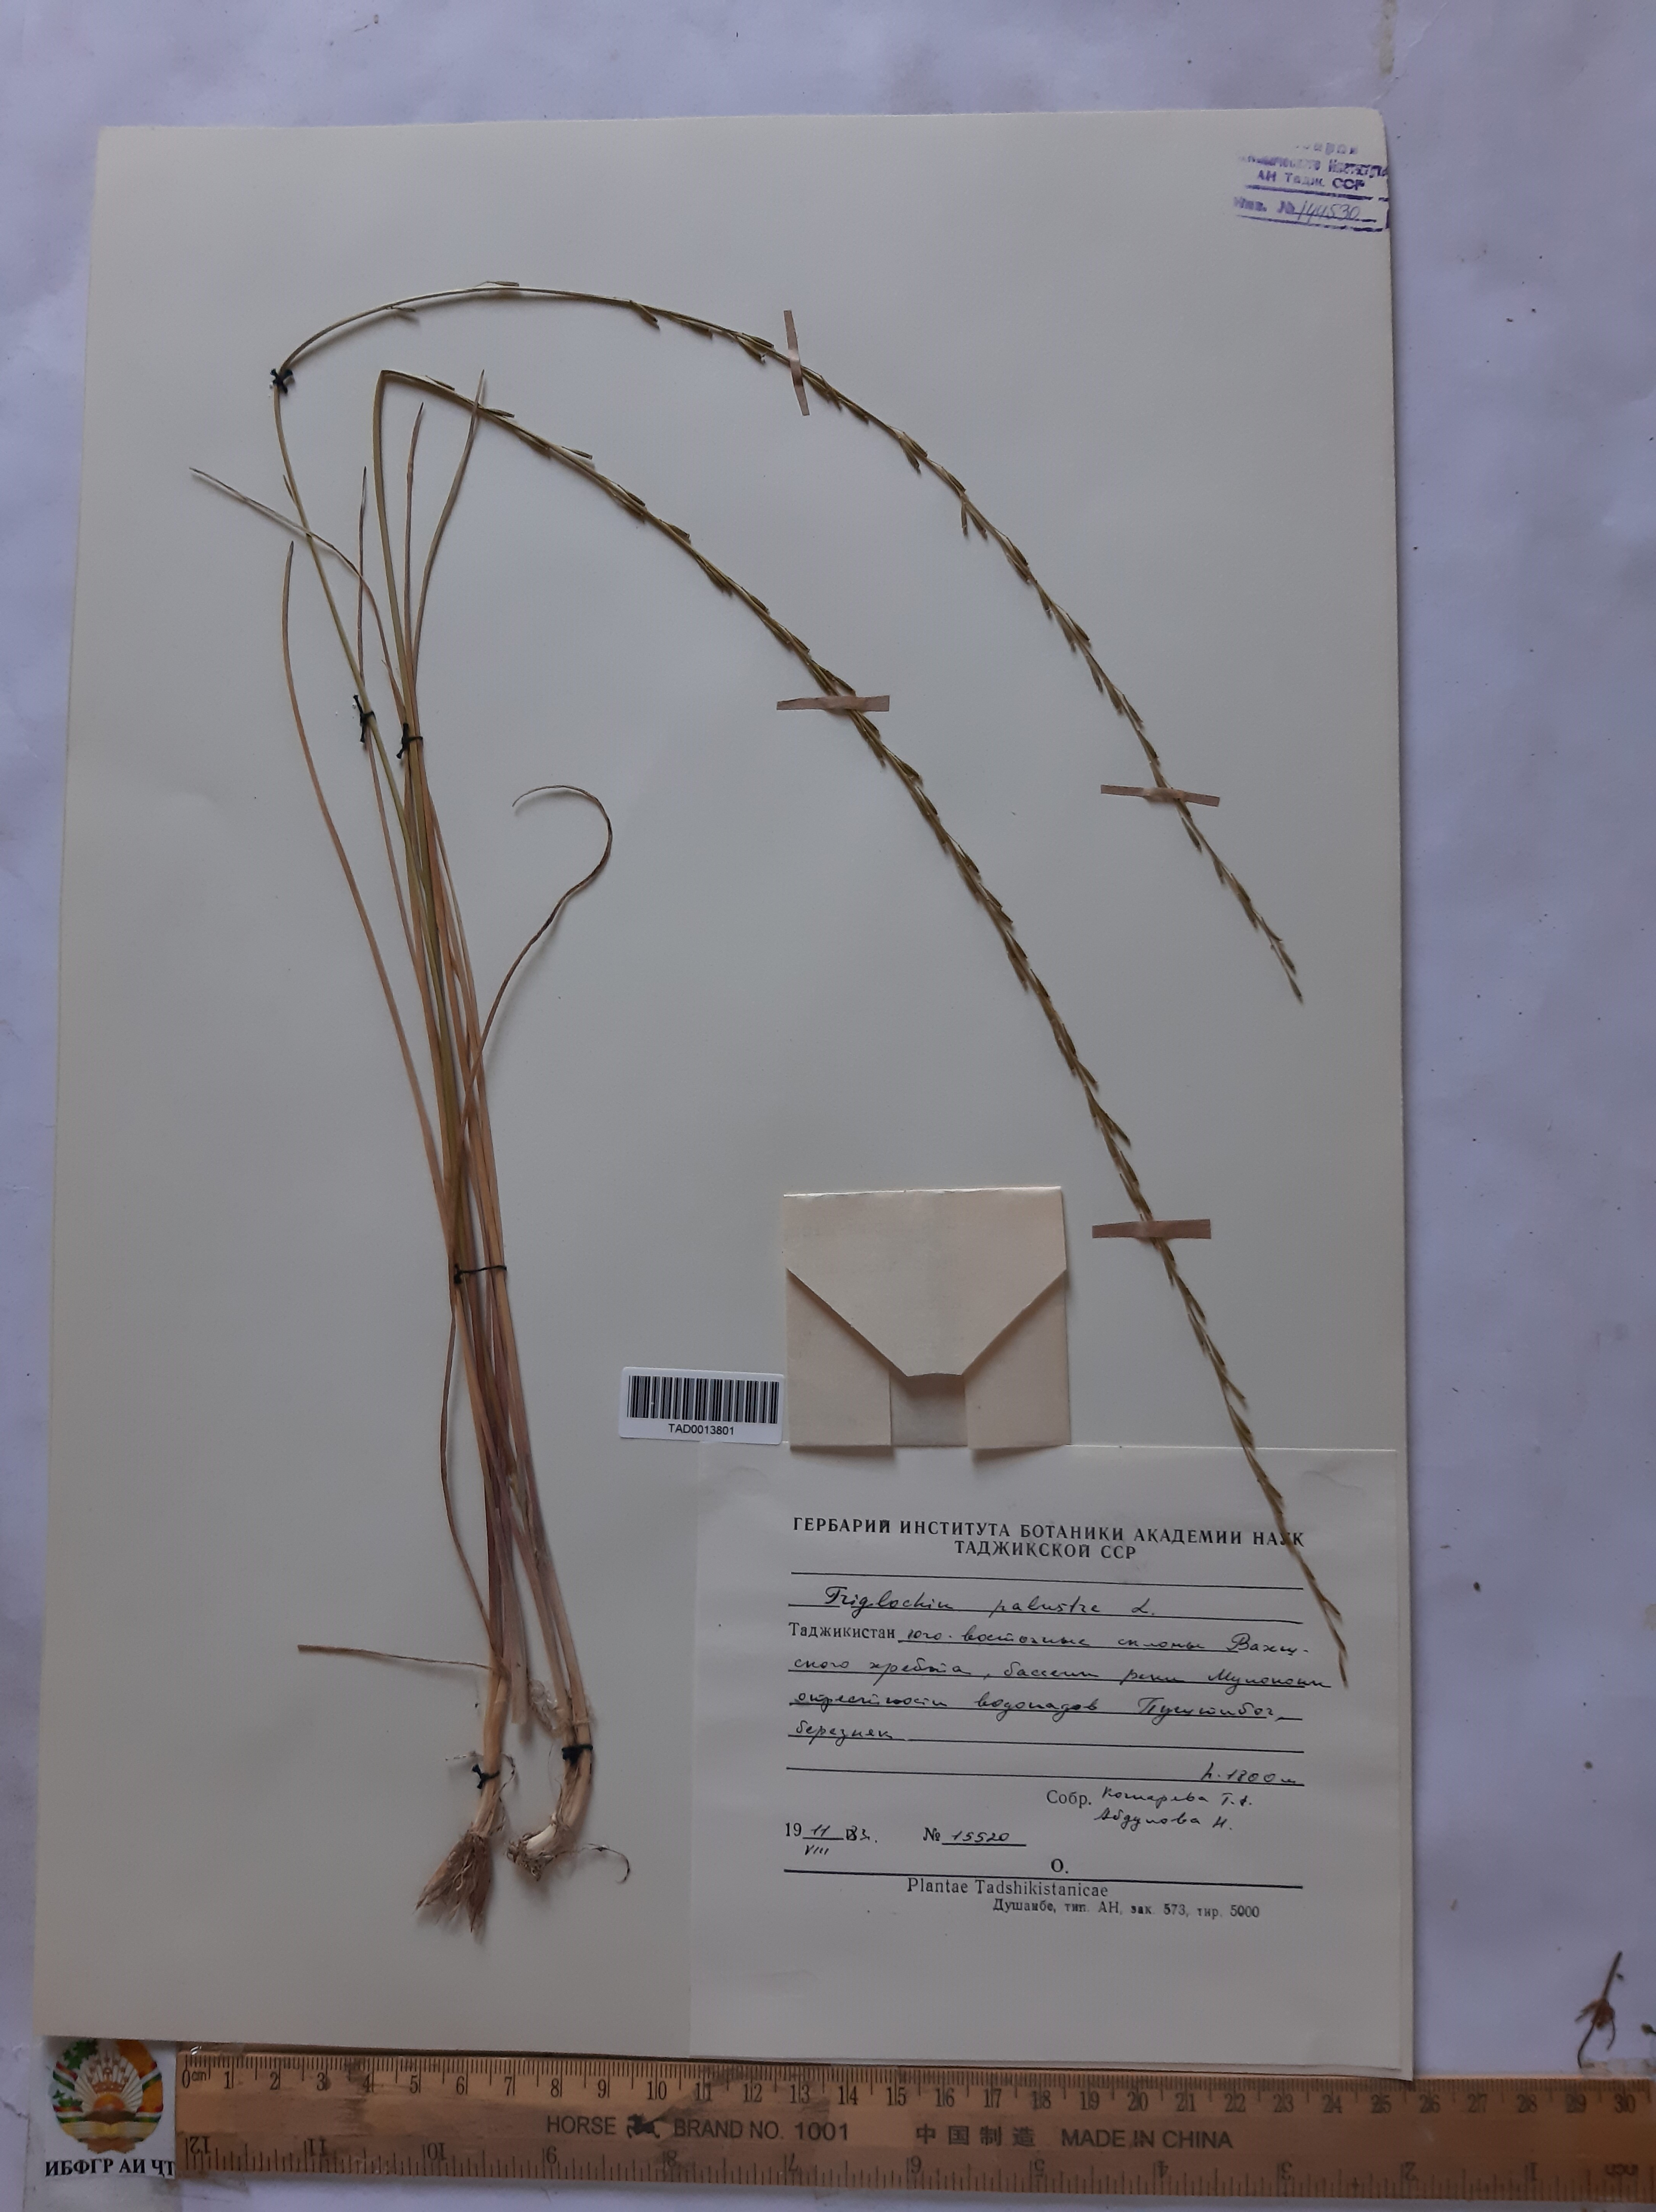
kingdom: Plantae
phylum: Tracheophyta
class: Liliopsida
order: Alismatales
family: Juncaginaceae
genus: Triglochin
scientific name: Triglochin palustris
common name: Marsh arrowgrass
